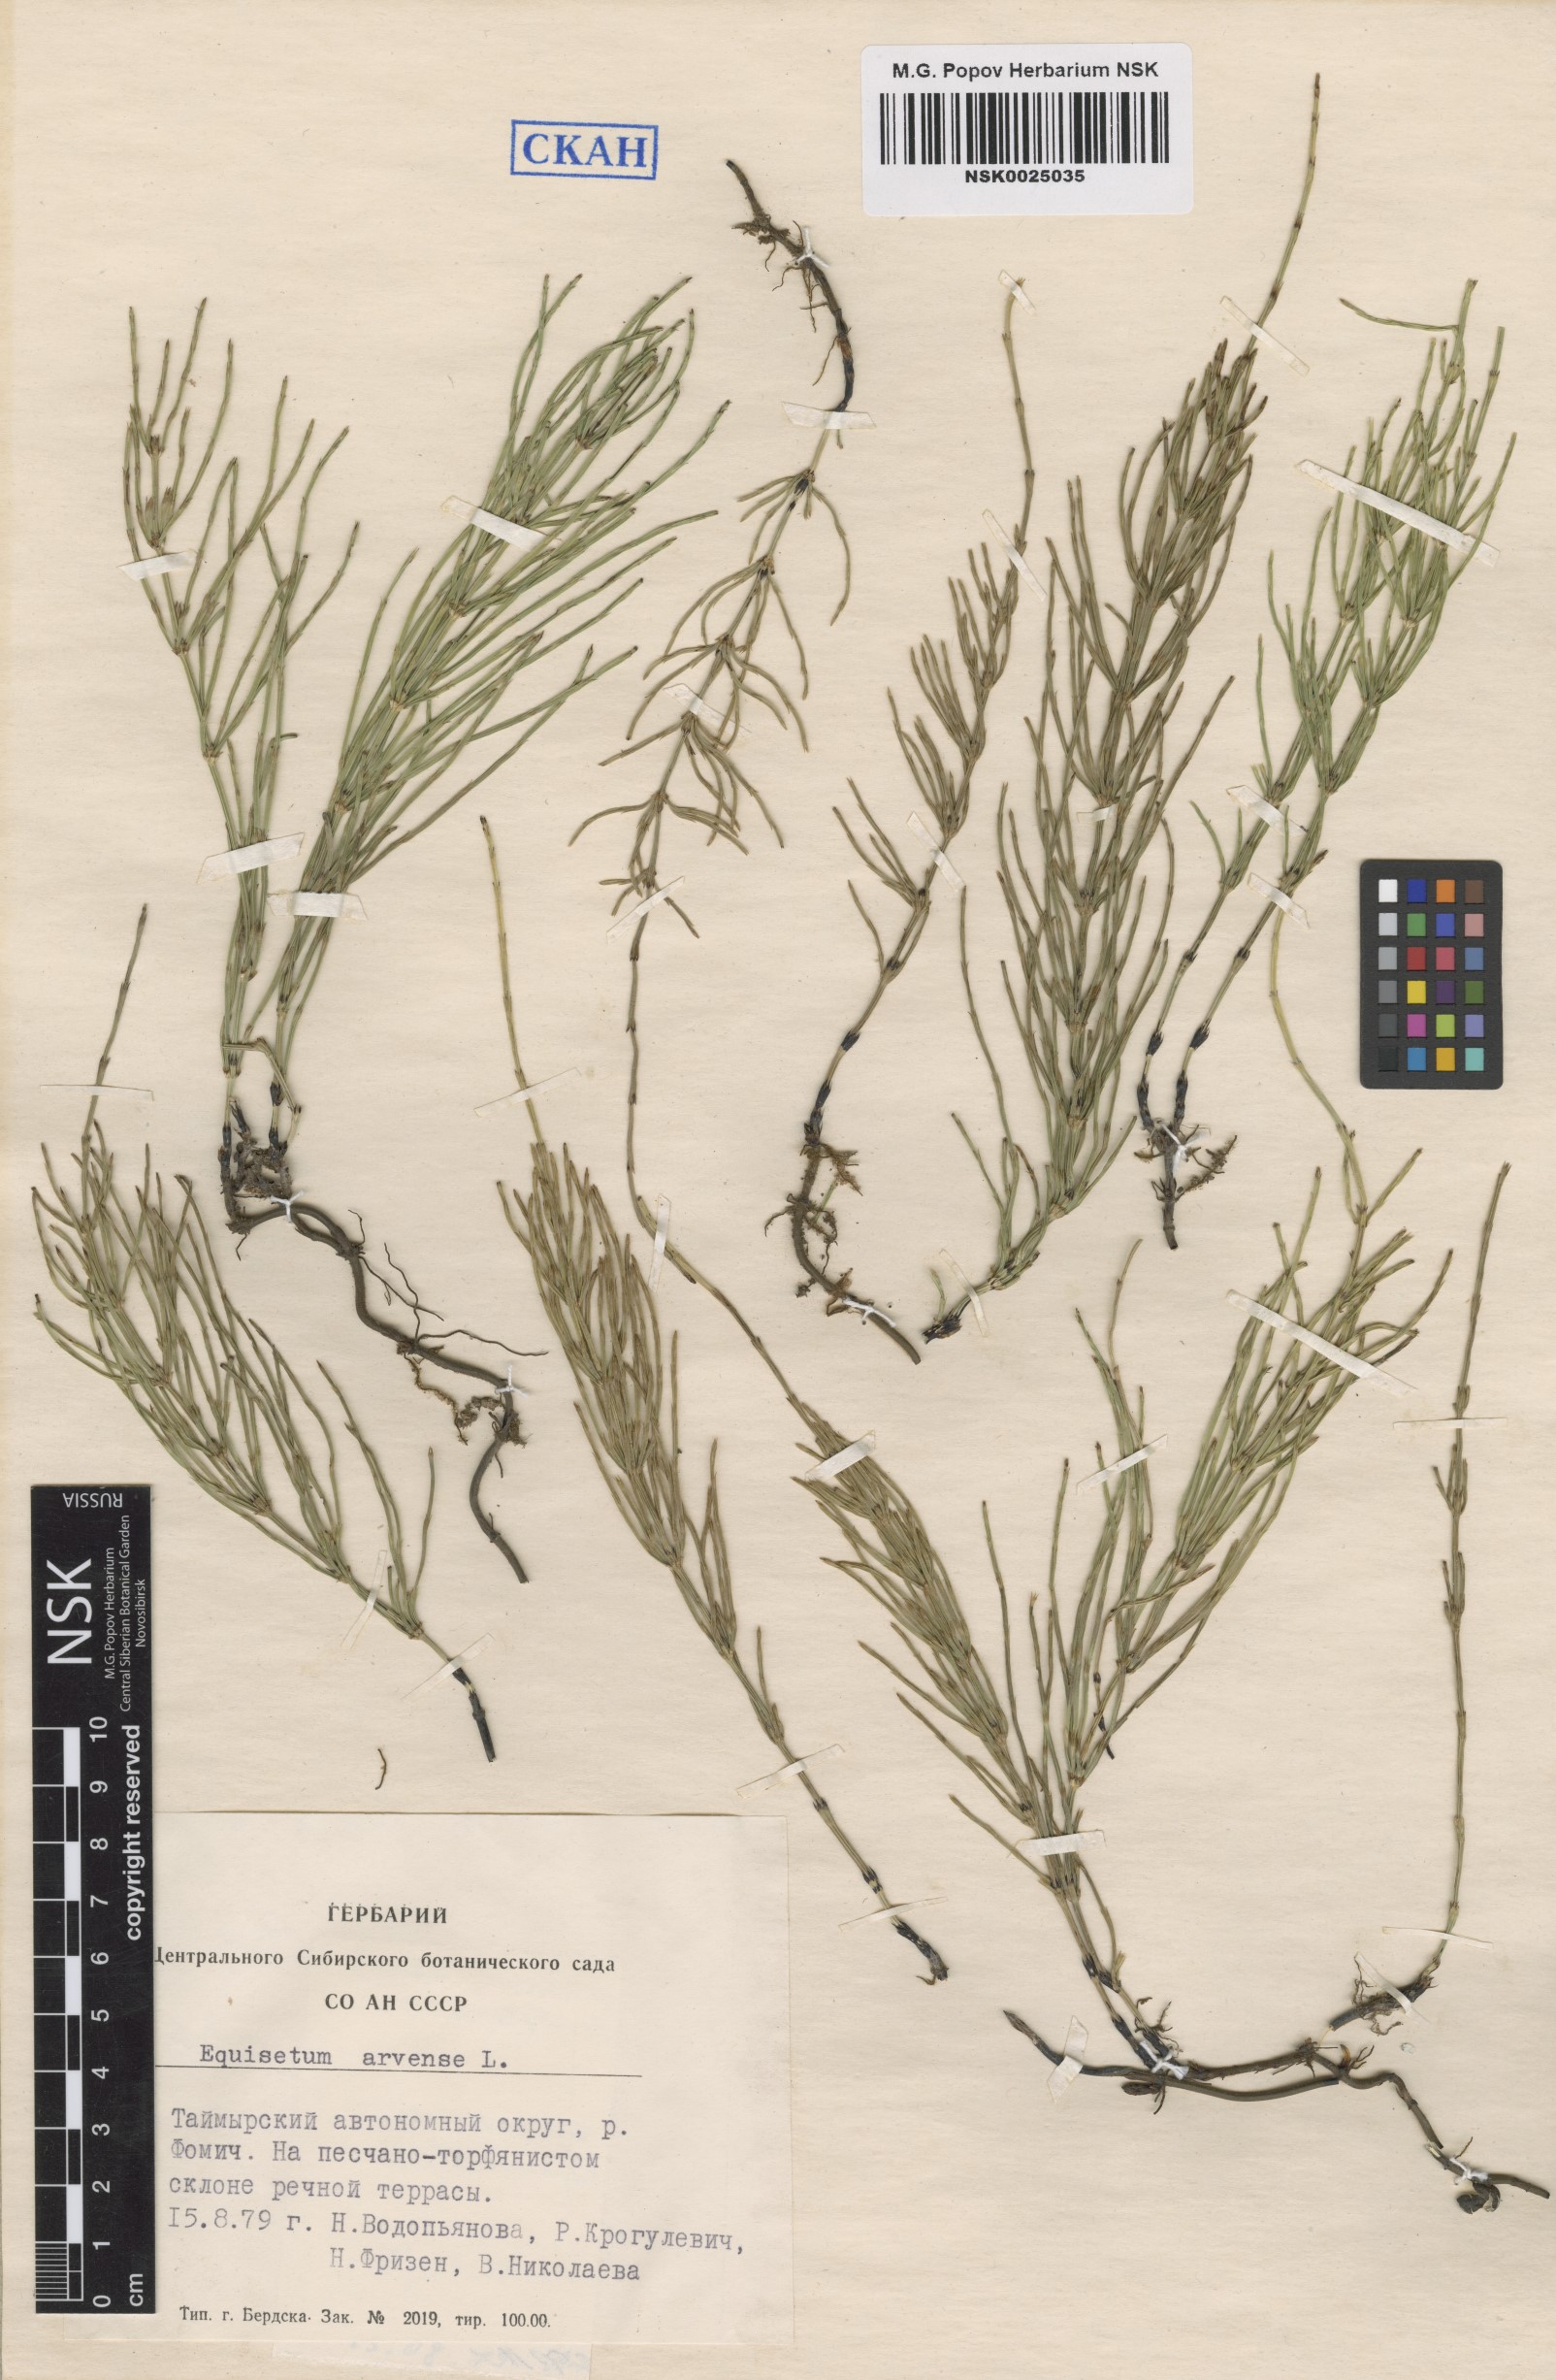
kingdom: Plantae
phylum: Tracheophyta
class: Polypodiopsida
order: Equisetales
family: Equisetaceae
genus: Equisetum
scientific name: Equisetum arvense
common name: Field horsetail
